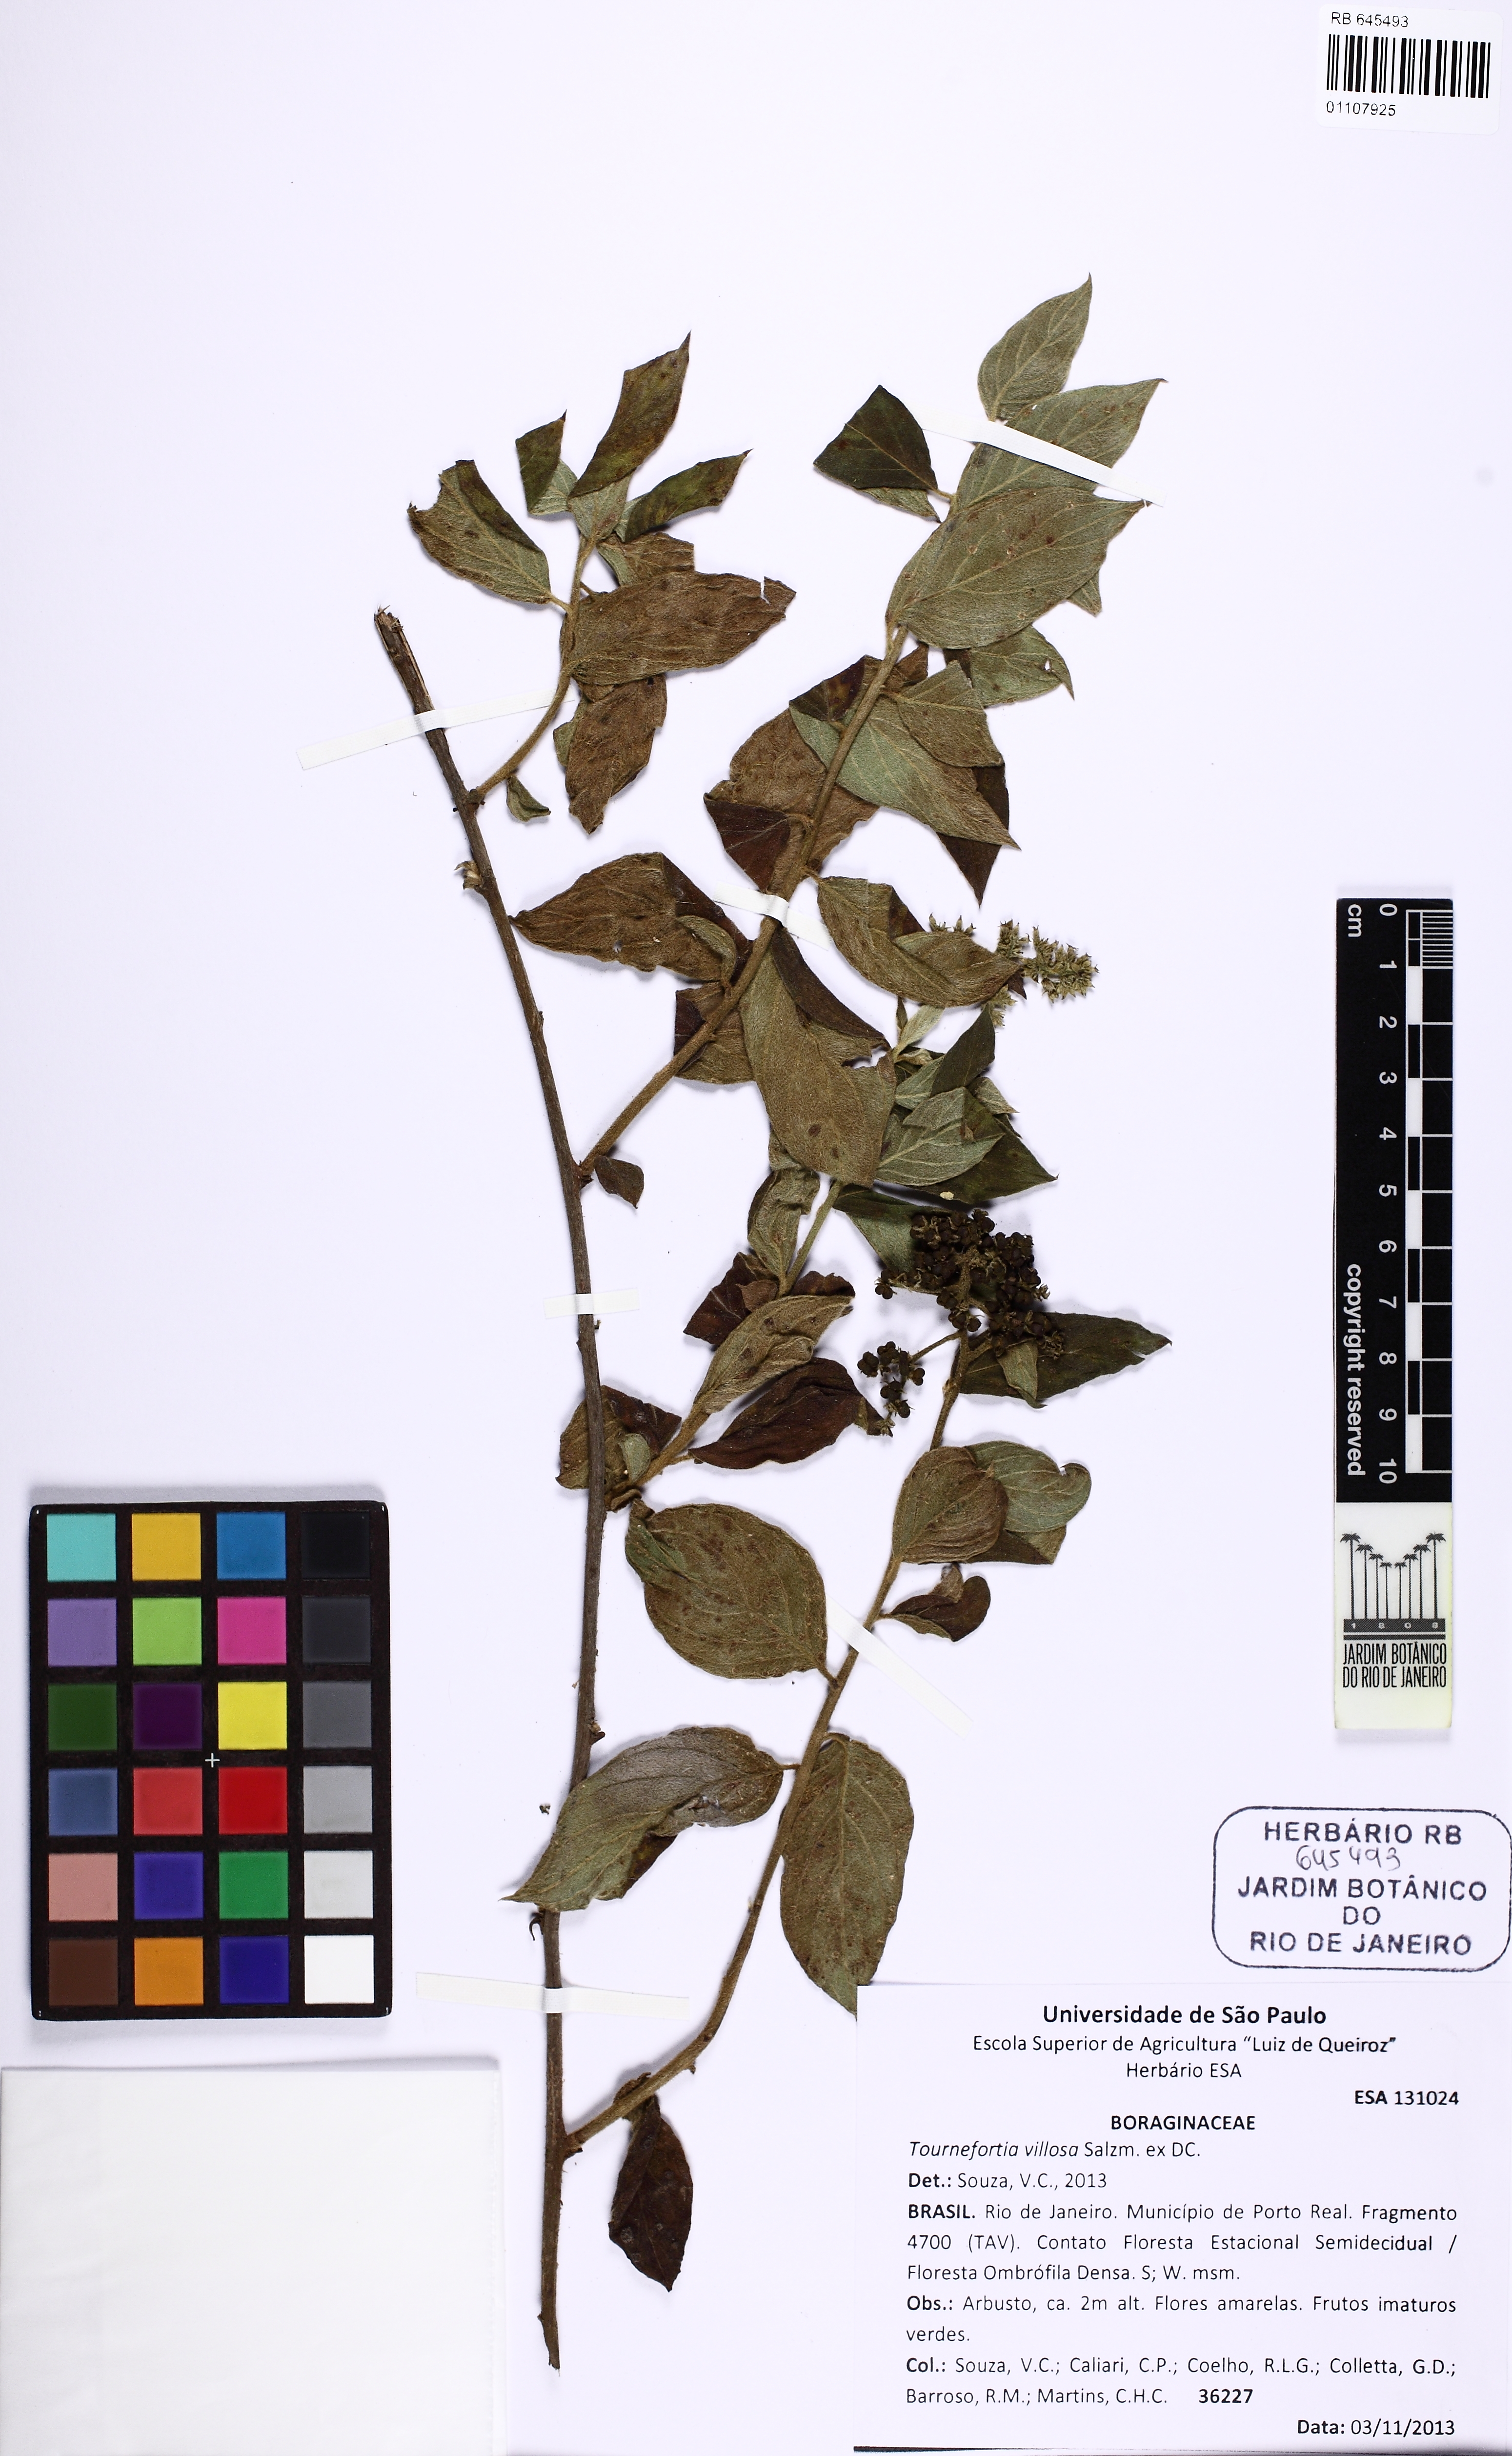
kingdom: Plantae
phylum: Tracheophyta
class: Magnoliopsida
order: Boraginales
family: Heliotropiaceae
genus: Tournefortia
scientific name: Tournefortia villosa
